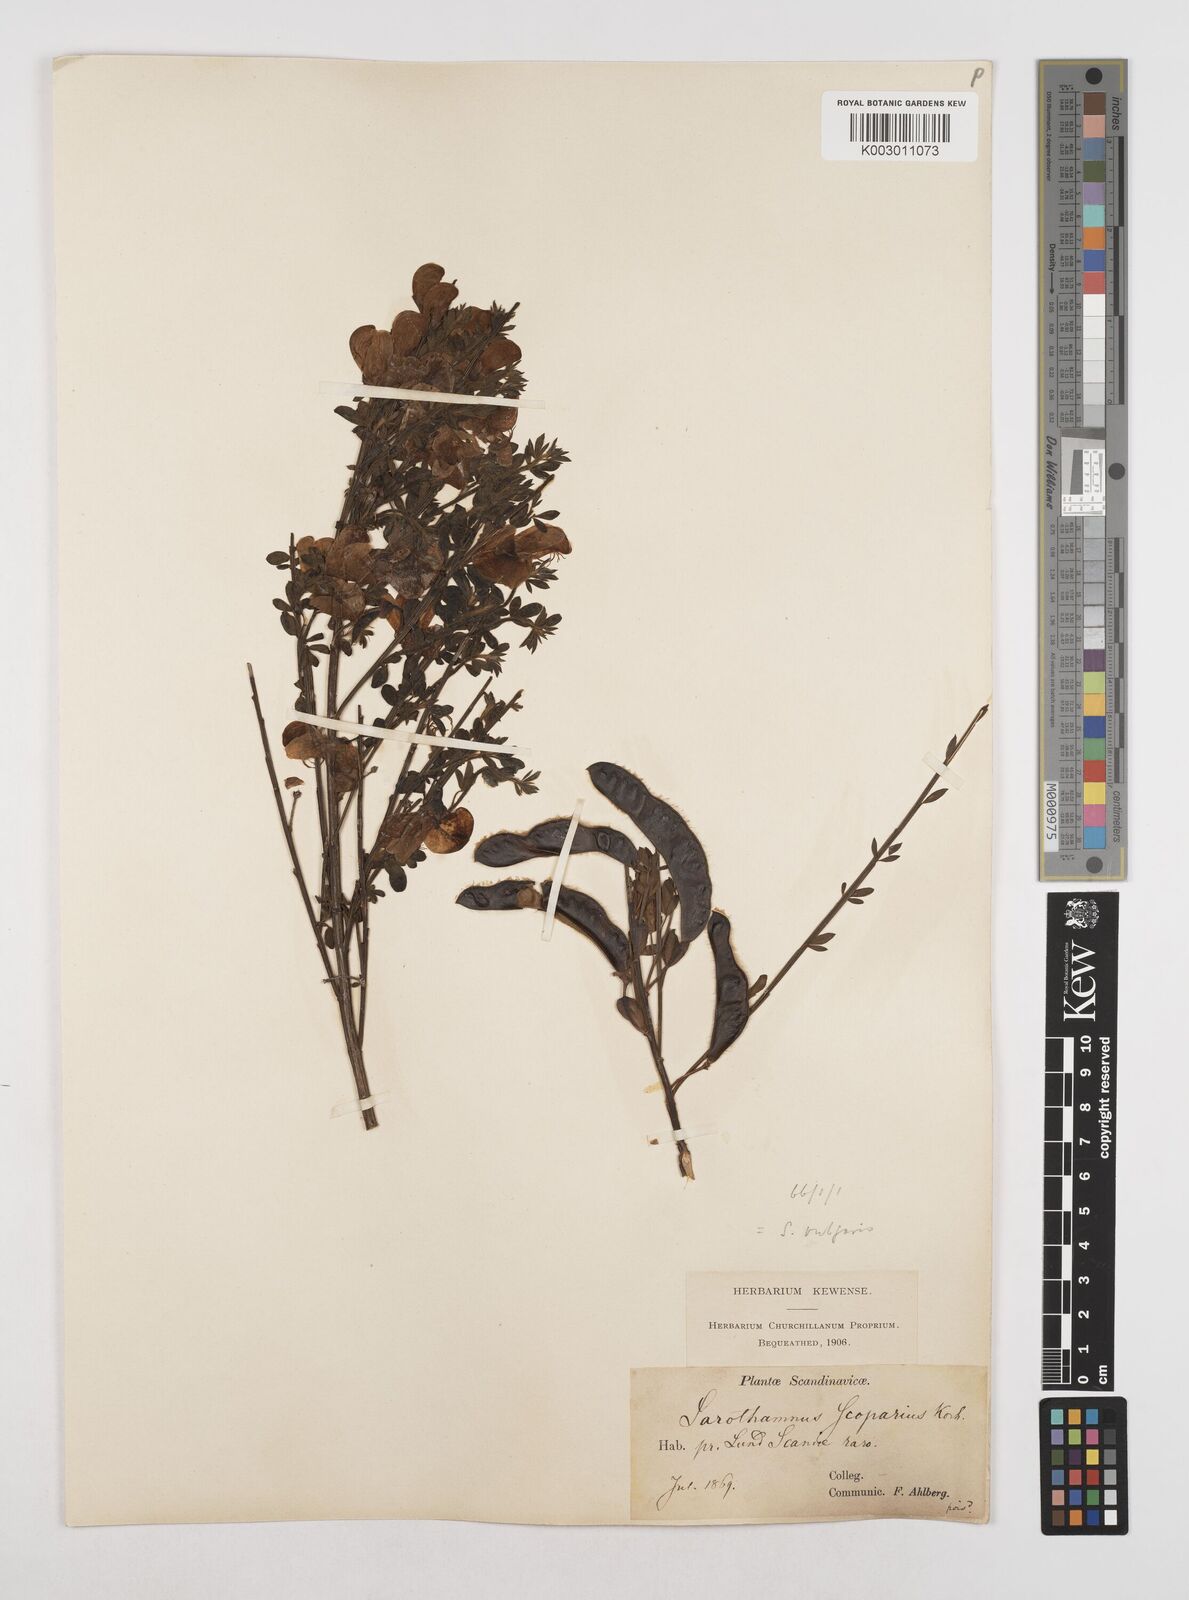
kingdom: Plantae
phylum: Tracheophyta
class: Magnoliopsida
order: Fabales
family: Fabaceae
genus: Cytisus
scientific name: Cytisus scoparius
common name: Scotch broom
